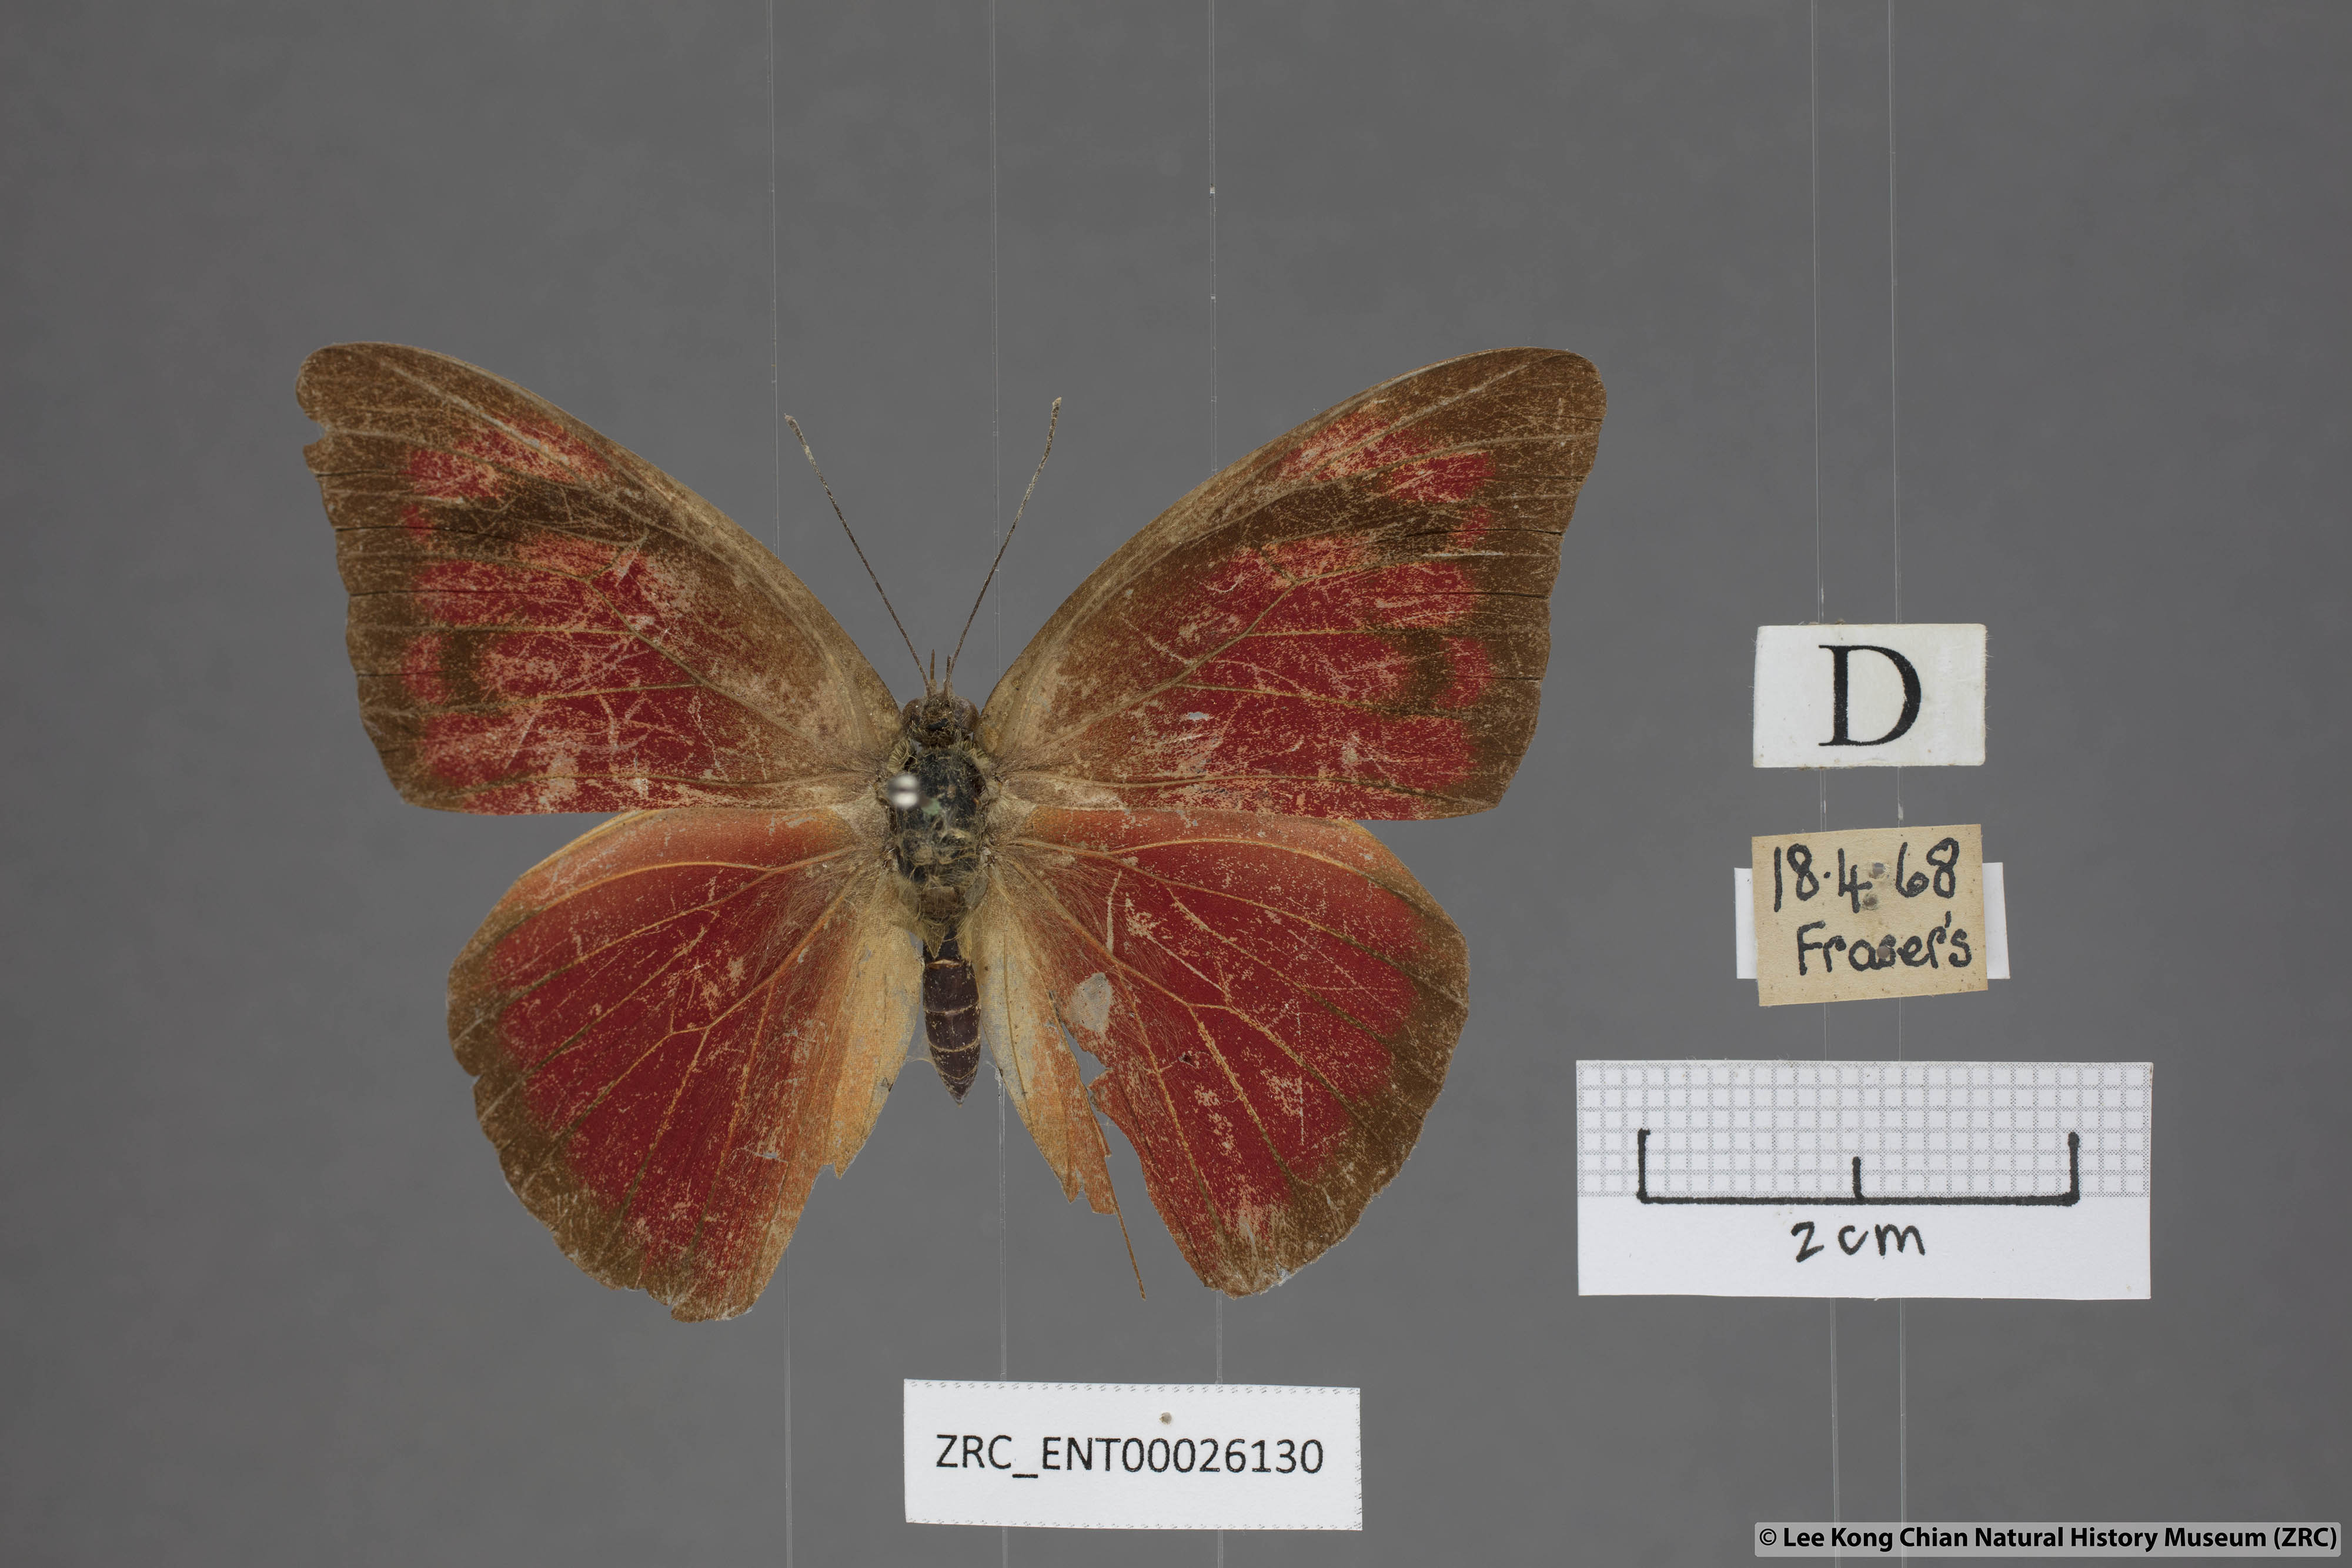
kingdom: Animalia
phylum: Arthropoda
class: Insecta
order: Lepidoptera
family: Pieridae
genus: Appias
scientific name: Appias nero
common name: Orange albatross
